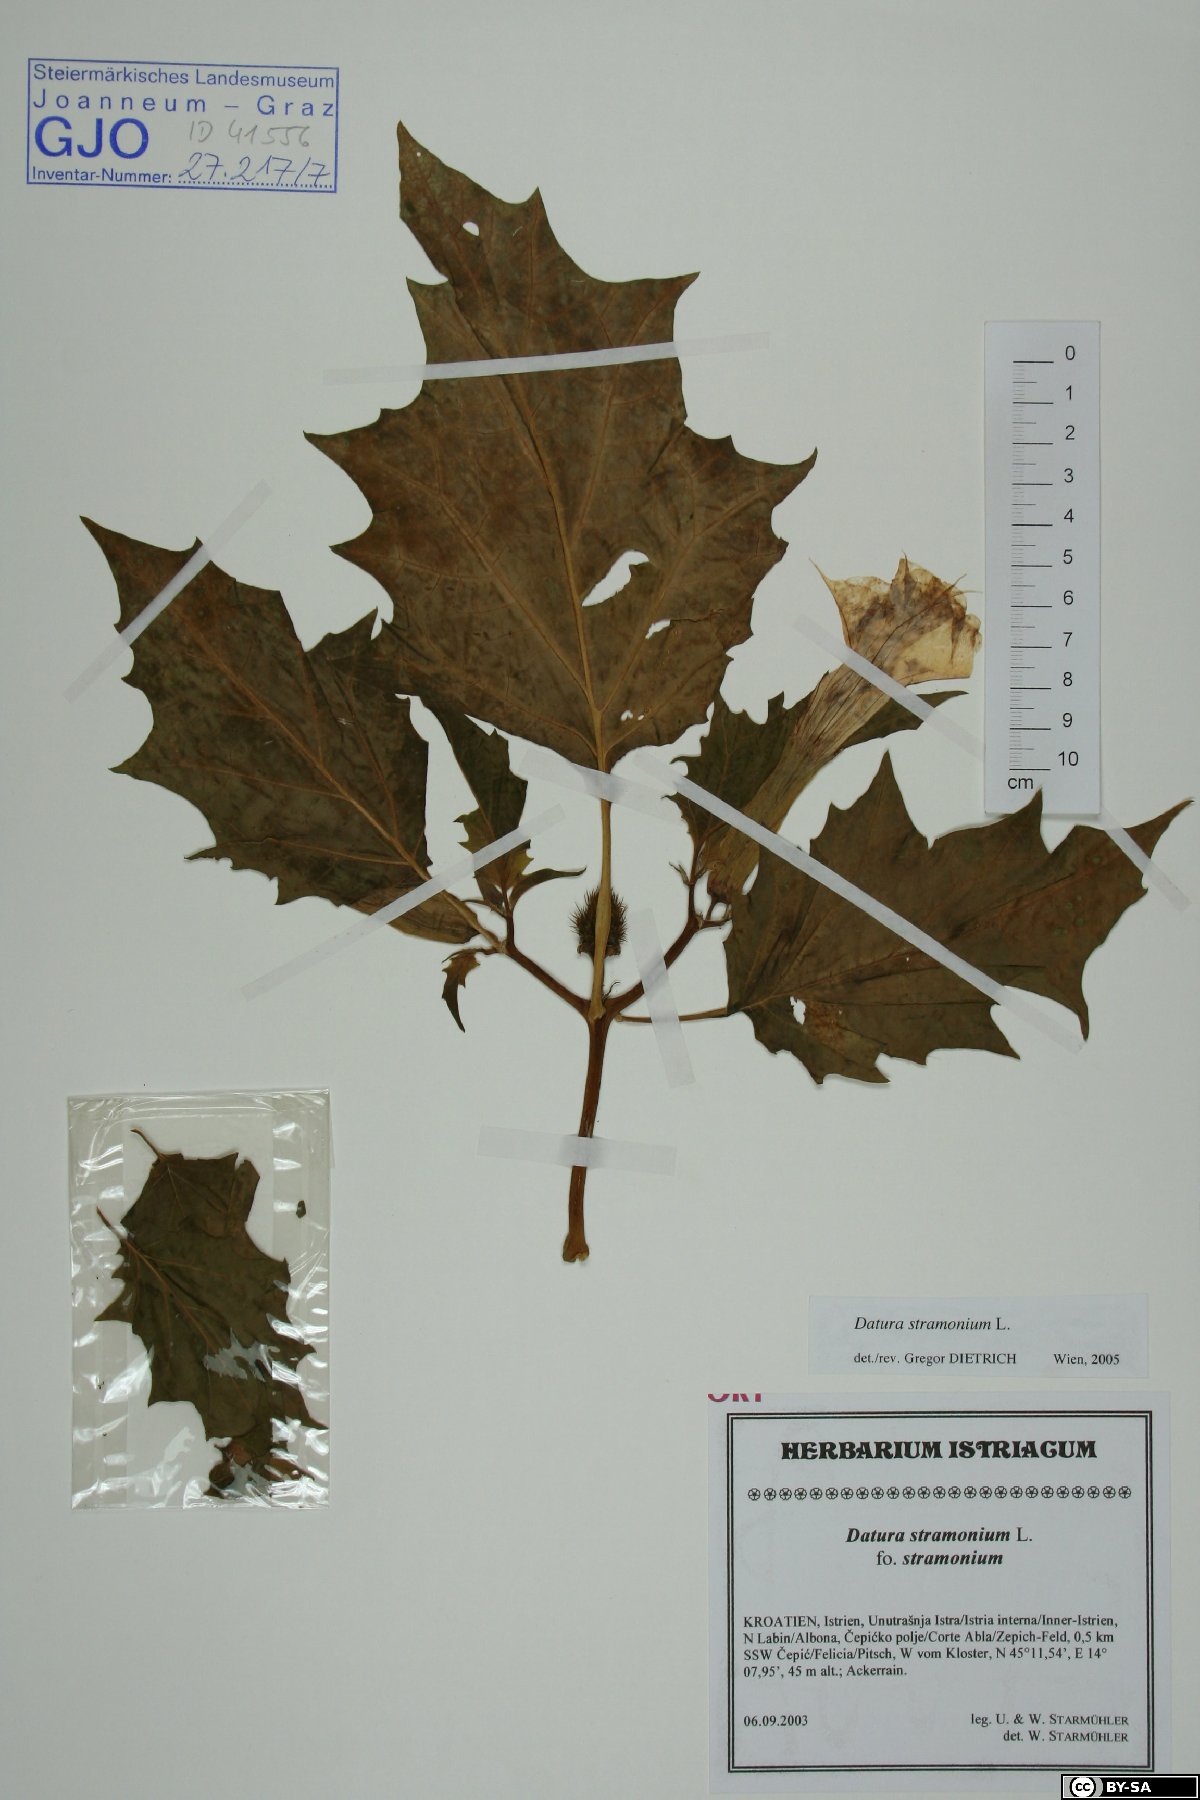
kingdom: Plantae
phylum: Tracheophyta
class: Magnoliopsida
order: Solanales
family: Solanaceae
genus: Datura
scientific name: Datura stramonium
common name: Thorn-apple
